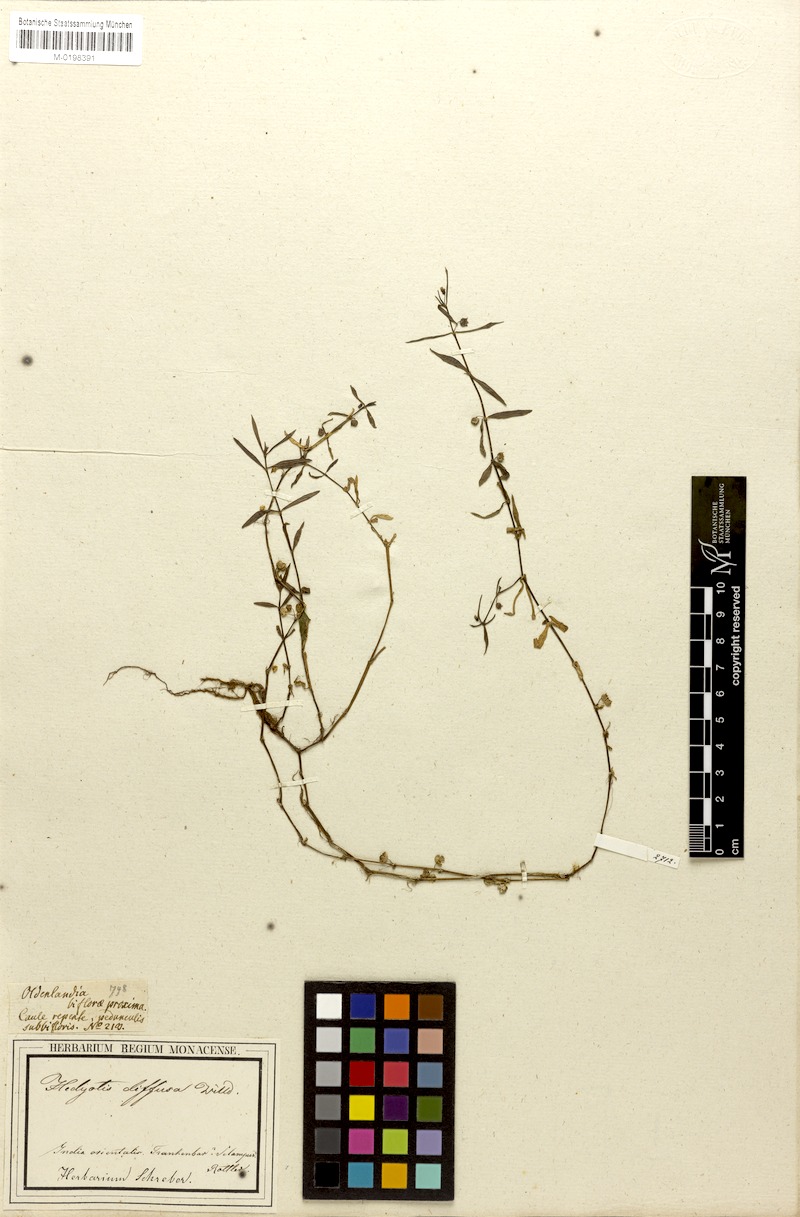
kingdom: Plantae
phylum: Tracheophyta
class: Magnoliopsida
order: Gentianales
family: Rubiaceae
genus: Scleromitrion
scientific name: Scleromitrion diffusum
